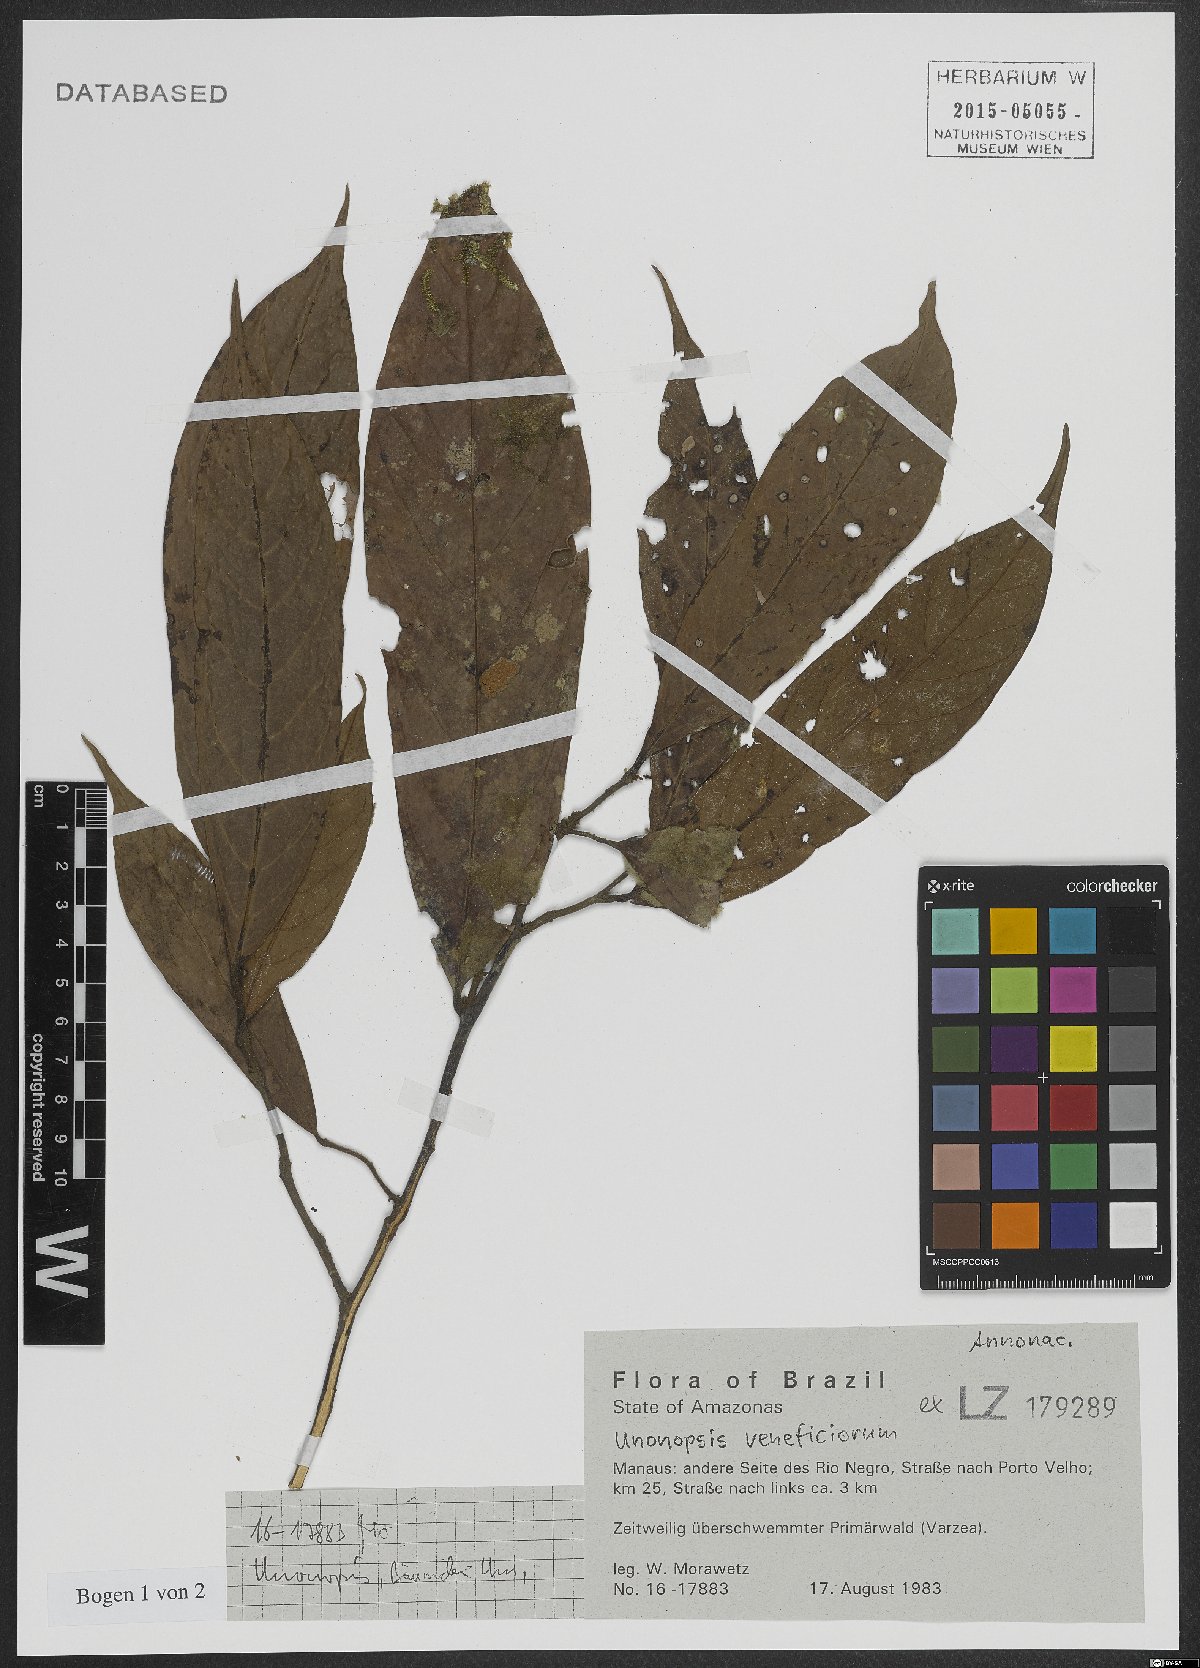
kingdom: Plantae
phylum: Tracheophyta
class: Magnoliopsida
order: Magnoliales
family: Annonaceae
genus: Unonopsis
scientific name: Unonopsis veneficiorum
